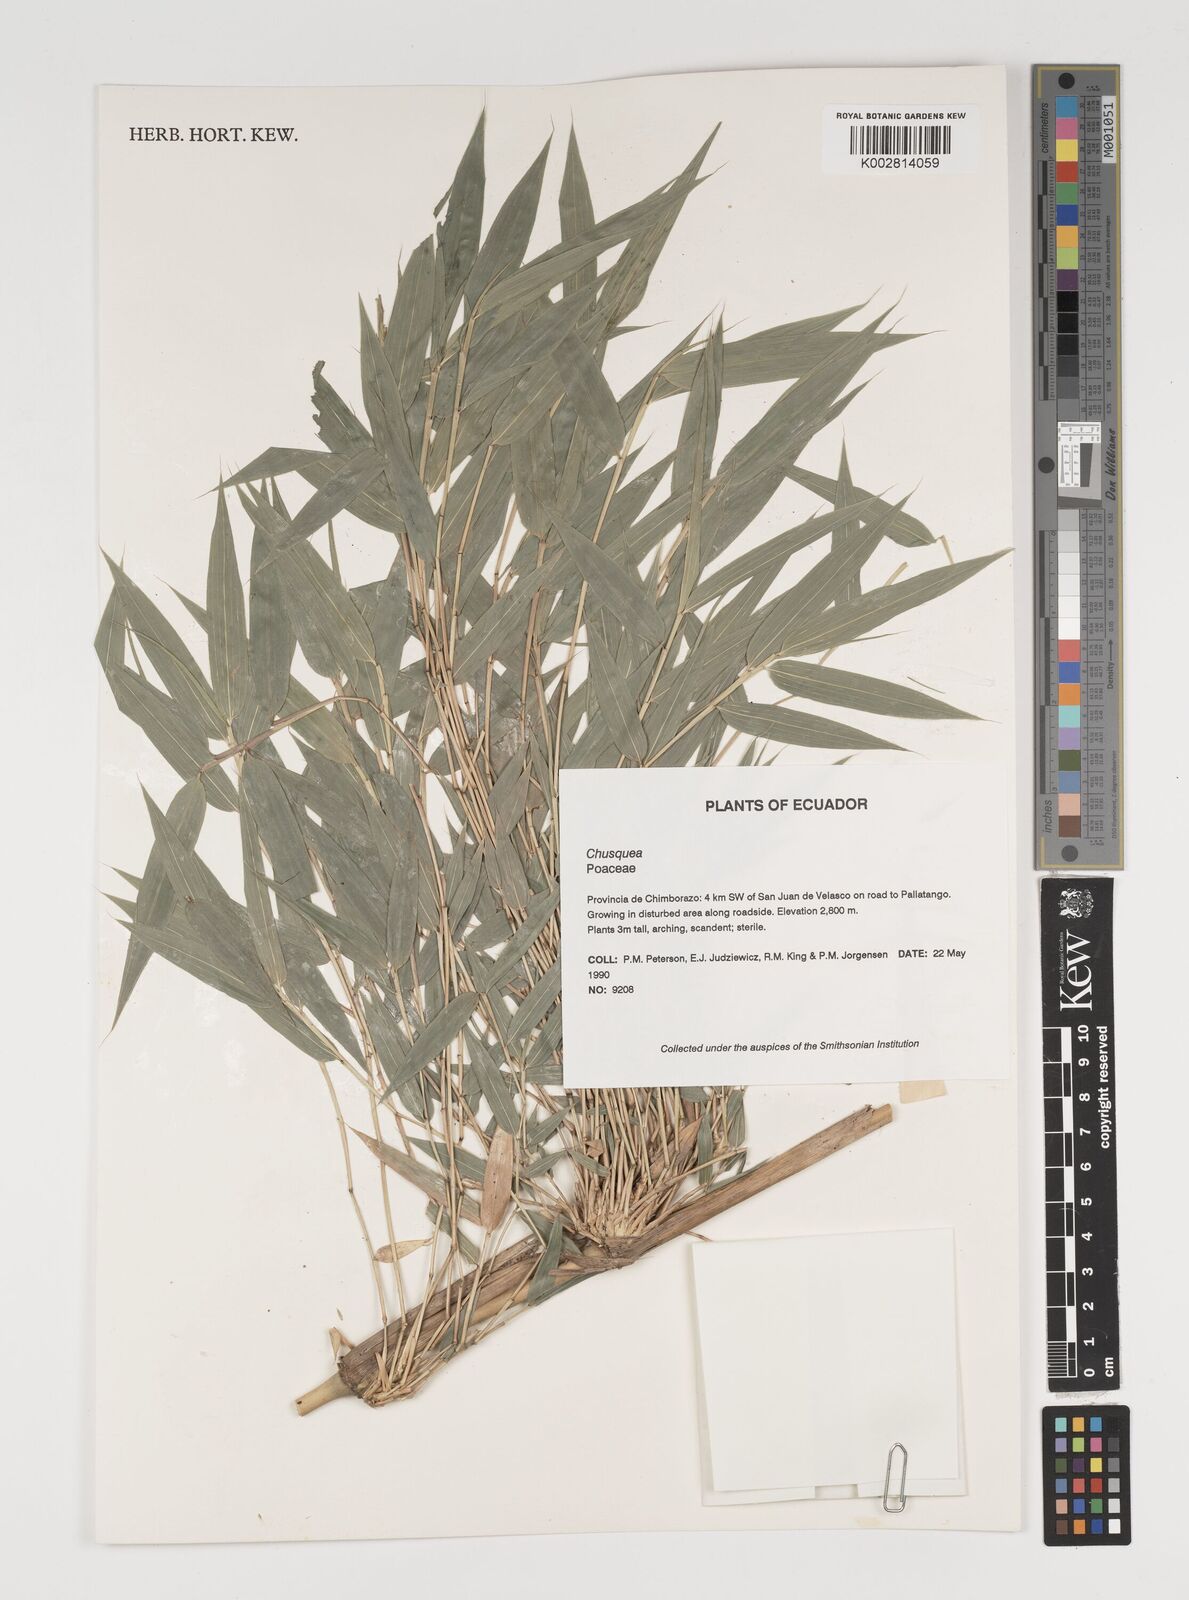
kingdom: Plantae
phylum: Tracheophyta
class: Liliopsida
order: Poales
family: Poaceae
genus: Chusquea
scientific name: Chusquea
